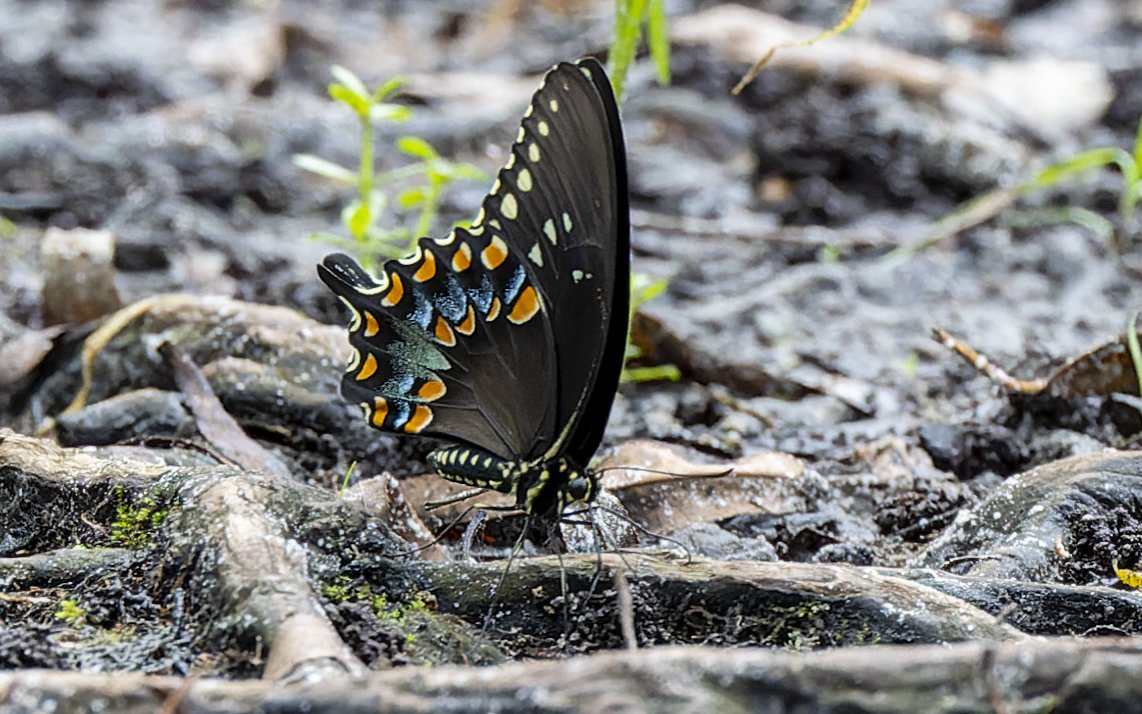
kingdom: Animalia
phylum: Arthropoda
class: Insecta
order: Lepidoptera
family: Papilionidae
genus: Pterourus
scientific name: Pterourus troilus
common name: Spicebush Swallowtail
